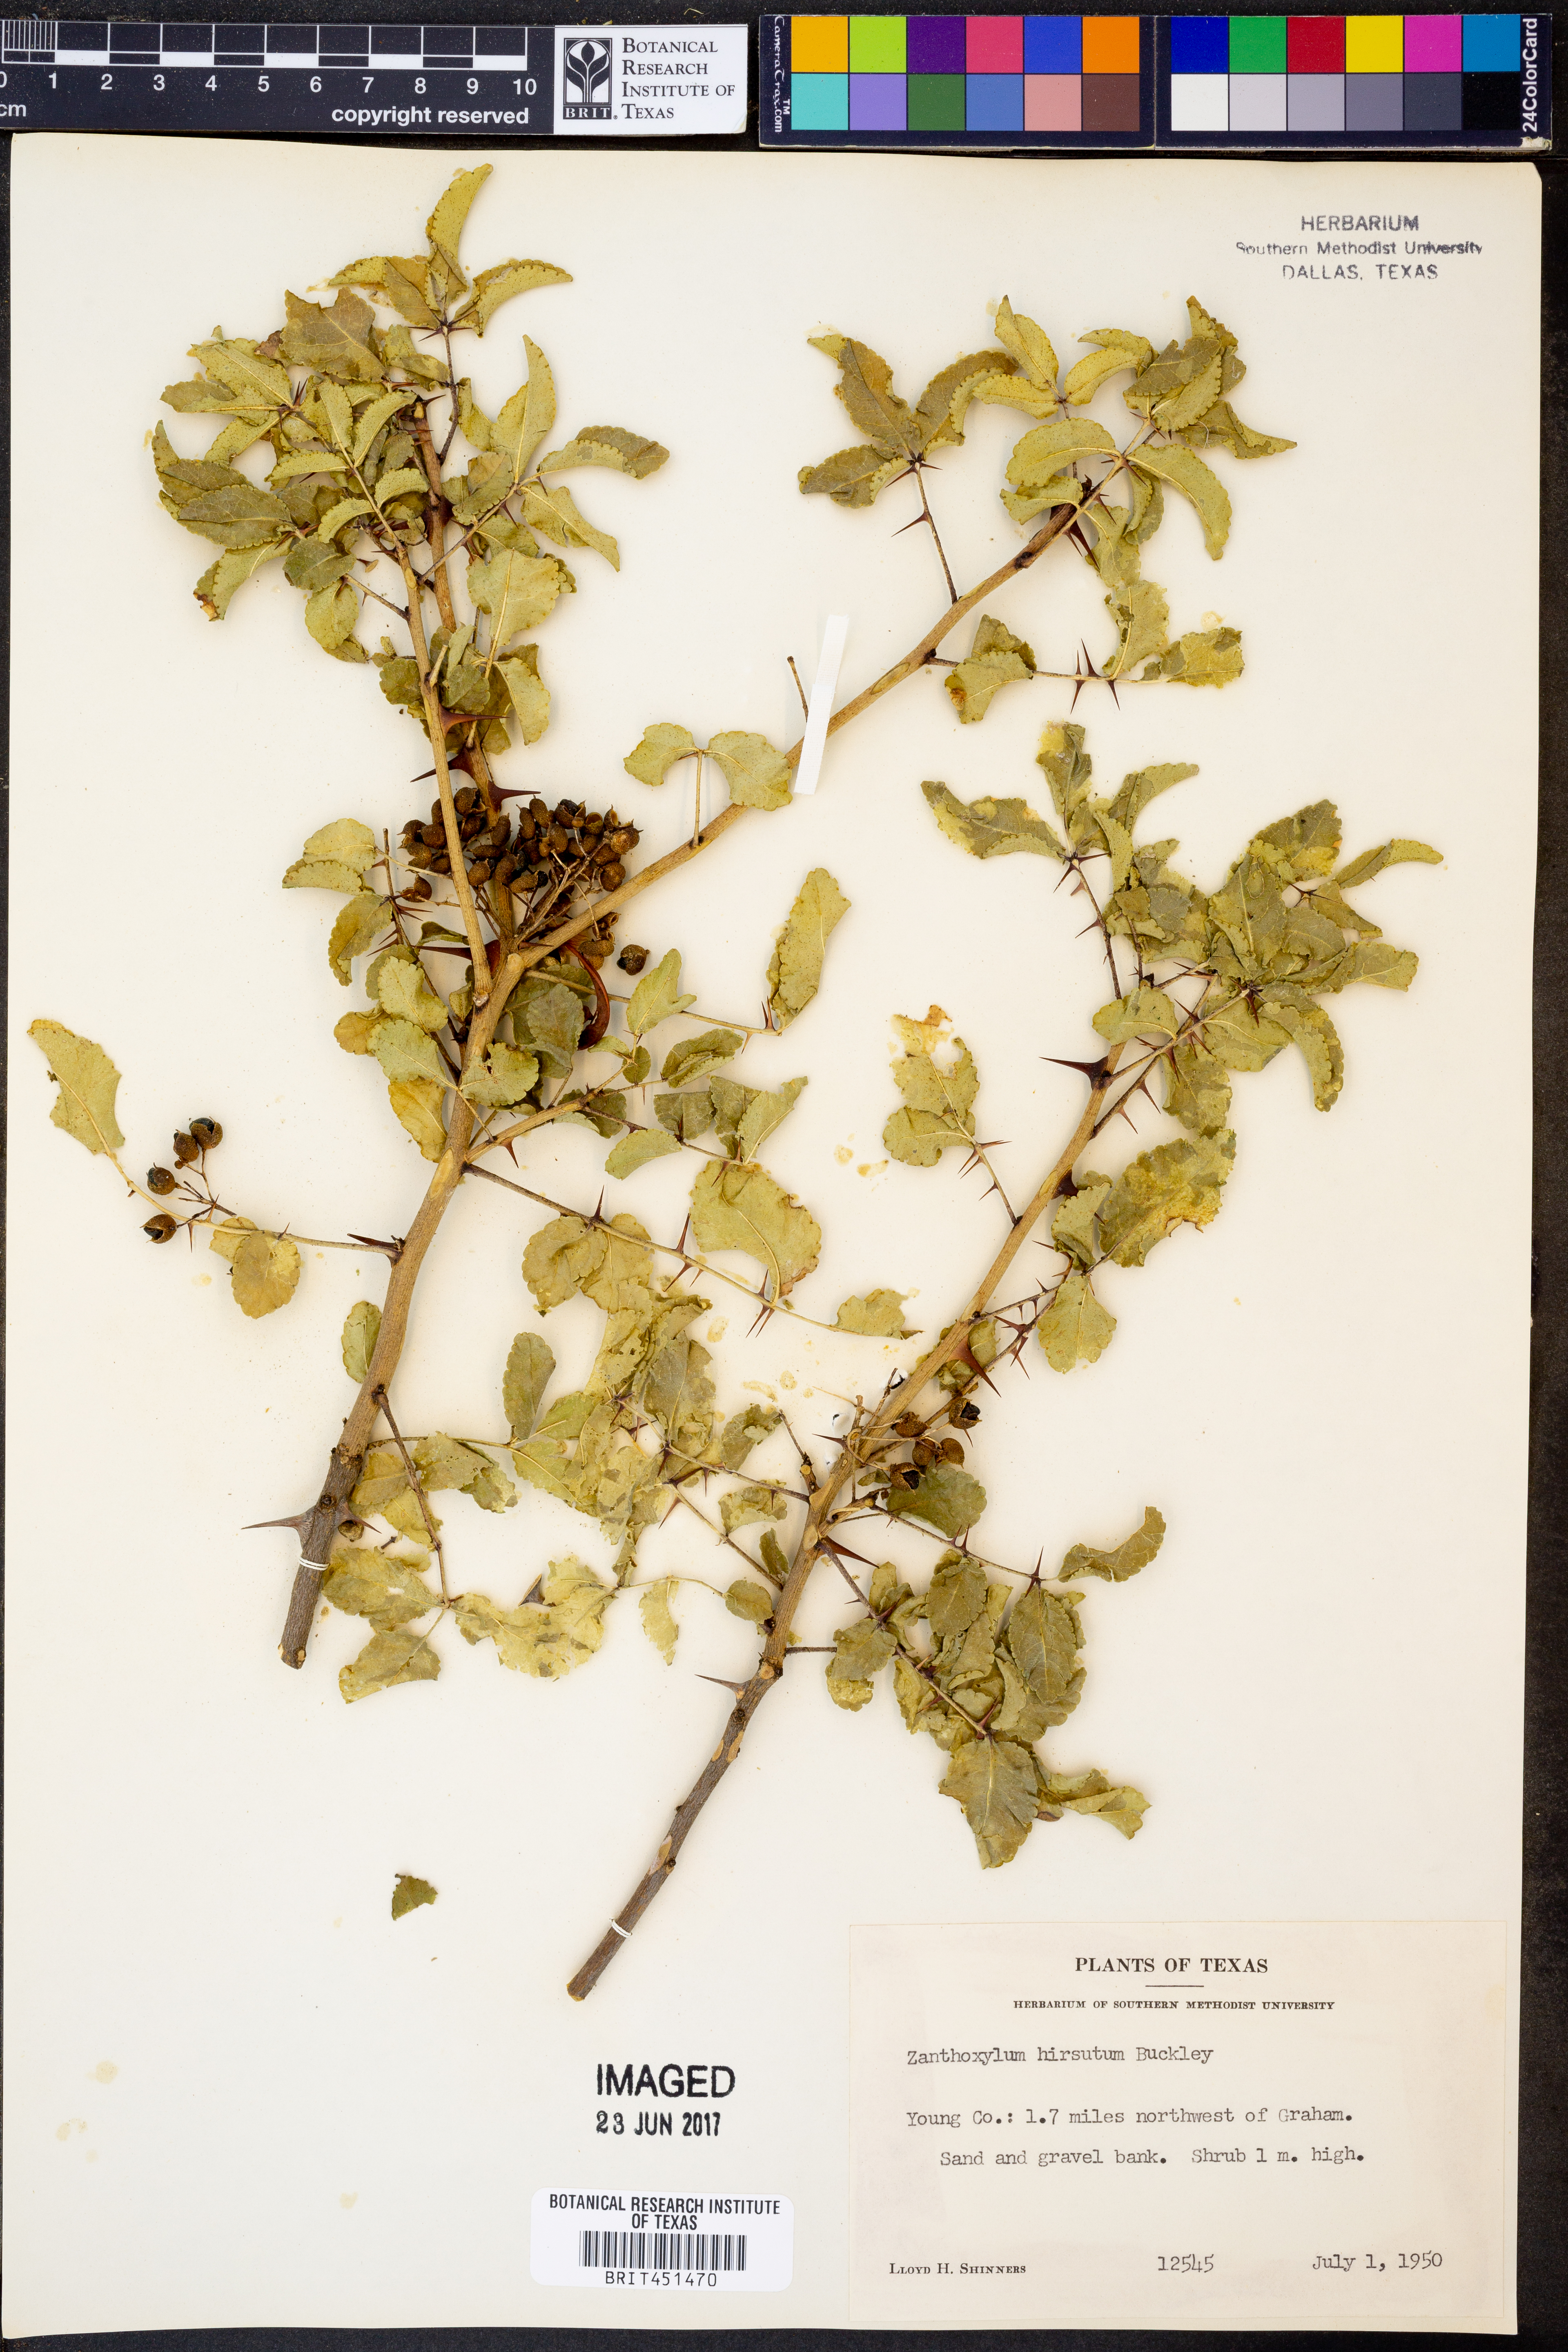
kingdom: Plantae
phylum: Tracheophyta
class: Magnoliopsida
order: Sapindales
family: Rutaceae
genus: Zanthoxylum
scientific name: Zanthoxylum clava-herculis
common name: Hercules'-club
